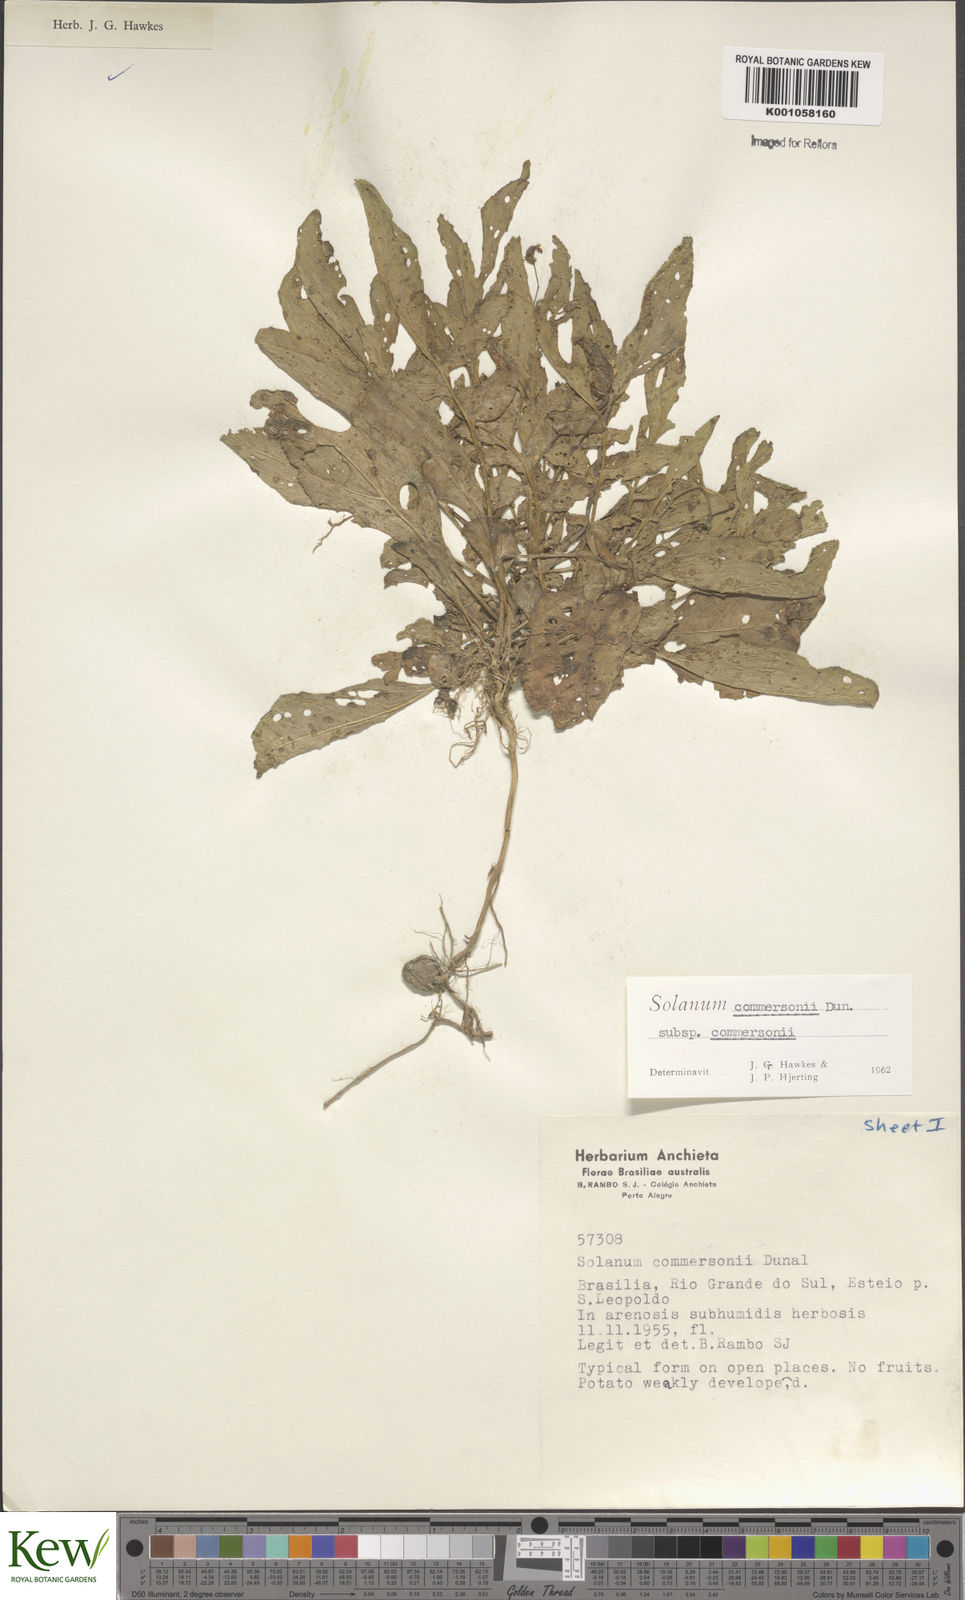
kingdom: Plantae
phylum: Tracheophyta
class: Magnoliopsida
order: Solanales
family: Solanaceae
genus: Solanum
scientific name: Solanum
